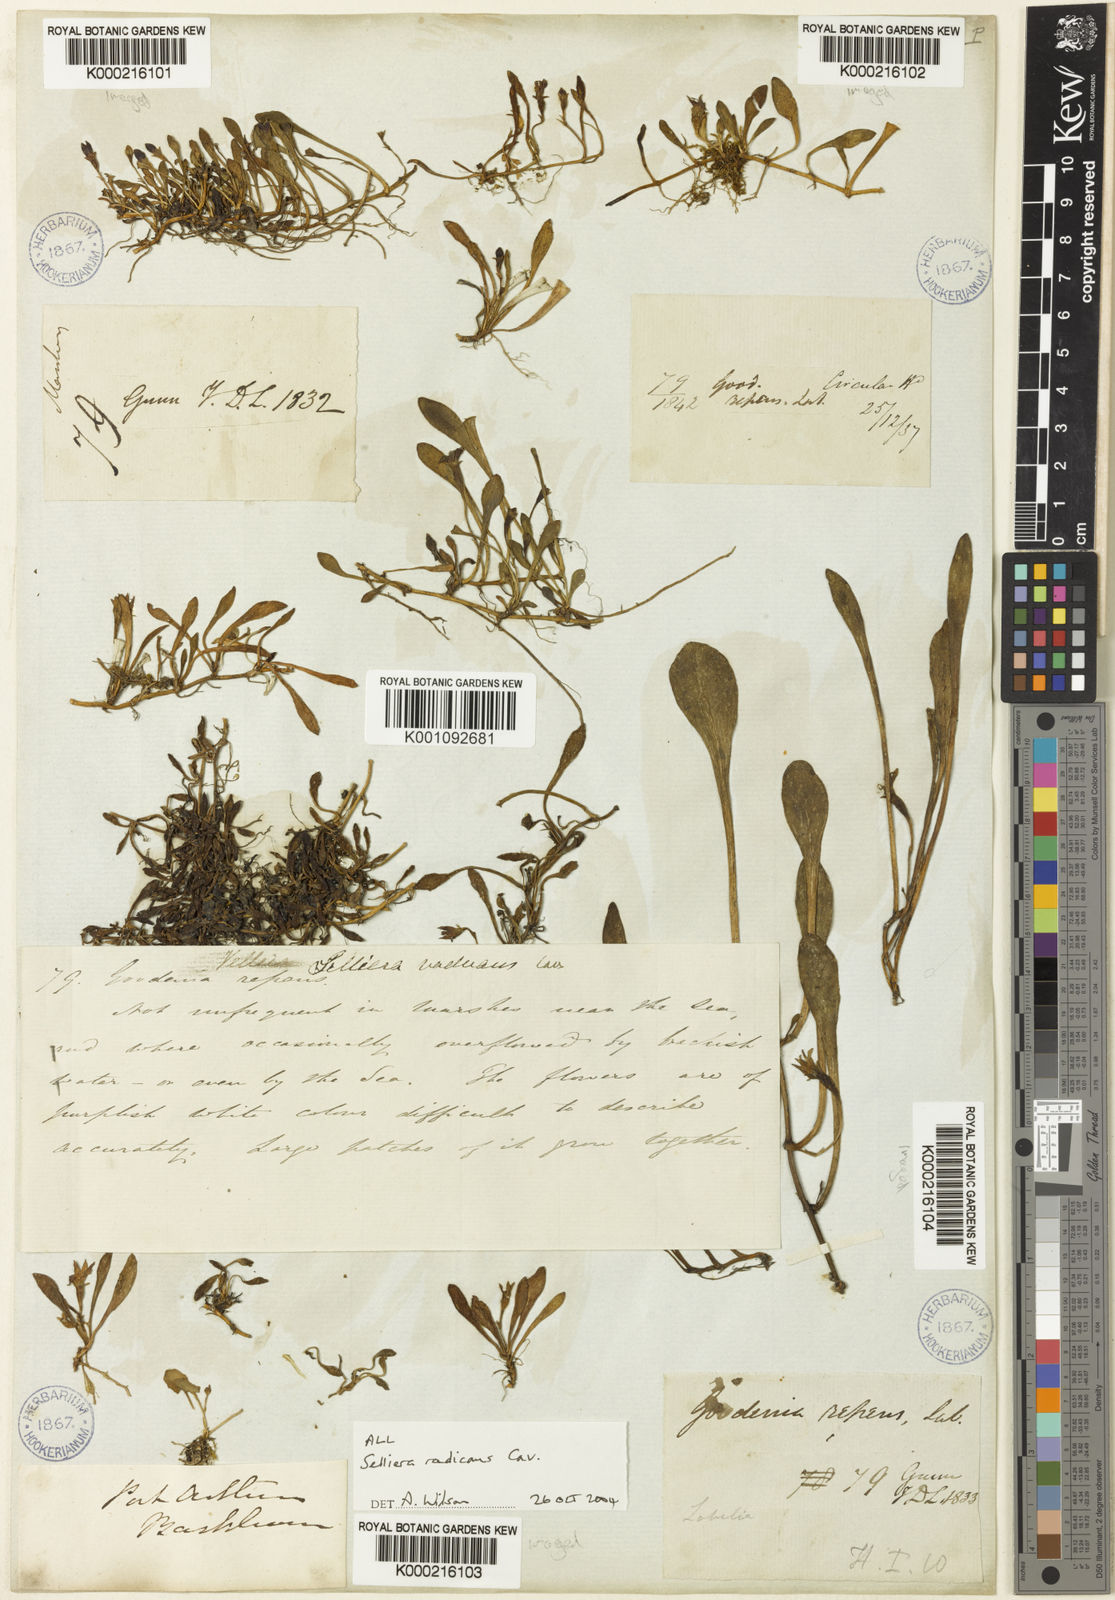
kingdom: Plantae
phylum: Tracheophyta
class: Magnoliopsida
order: Asterales
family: Goodeniaceae
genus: Goodenia
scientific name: Goodenia radicans
